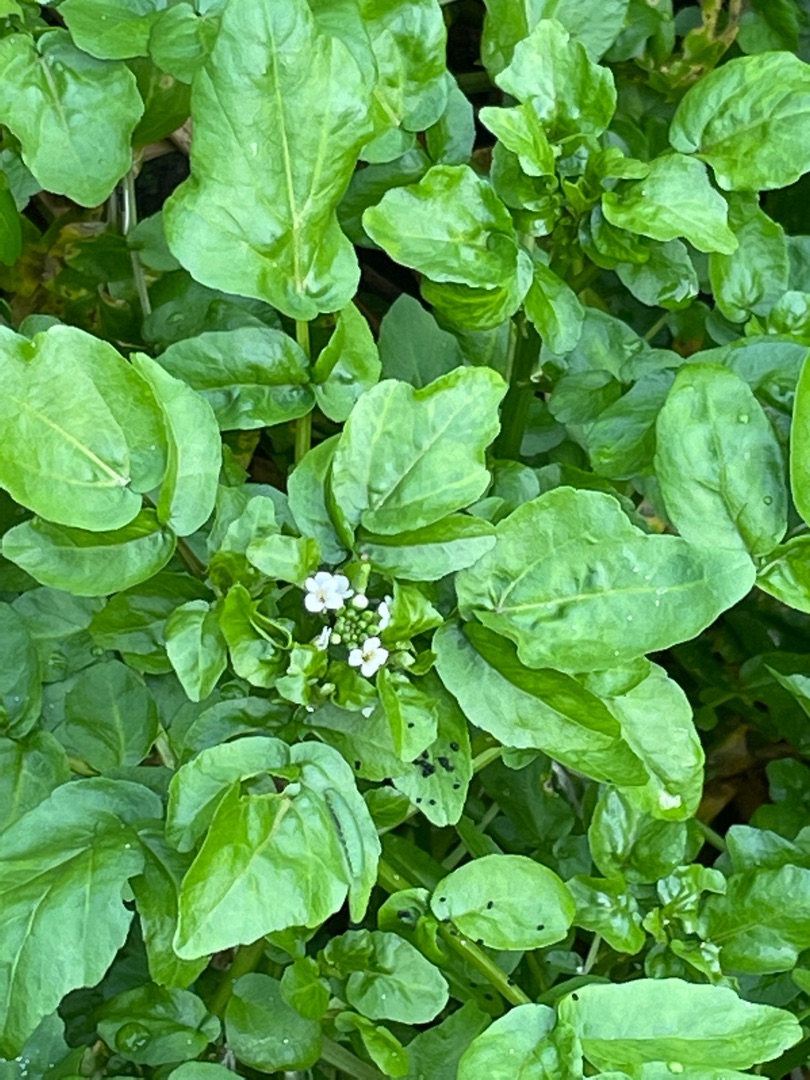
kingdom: Plantae
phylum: Tracheophyta
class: Magnoliopsida
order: Brassicales
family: Brassicaceae
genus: Nasturtium
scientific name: Nasturtium
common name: Brøndkarseslægten
